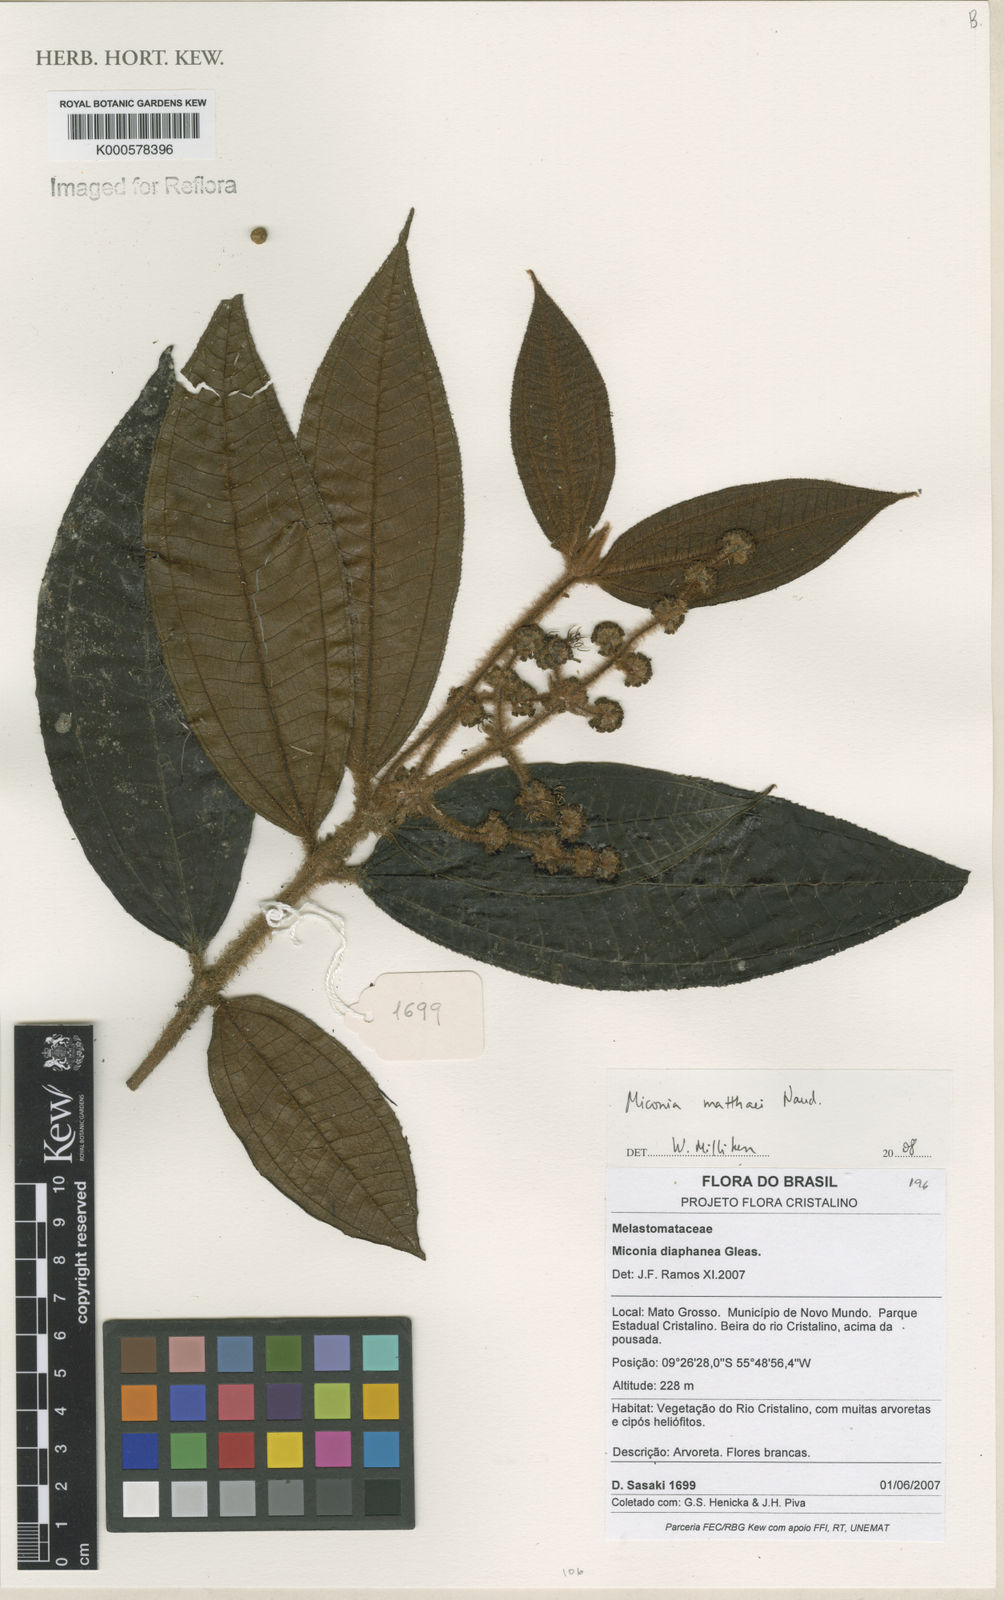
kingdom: Plantae
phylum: Tracheophyta
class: Magnoliopsida
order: Myrtales
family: Melastomataceae
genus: Miconia
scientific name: Miconia matthaei
